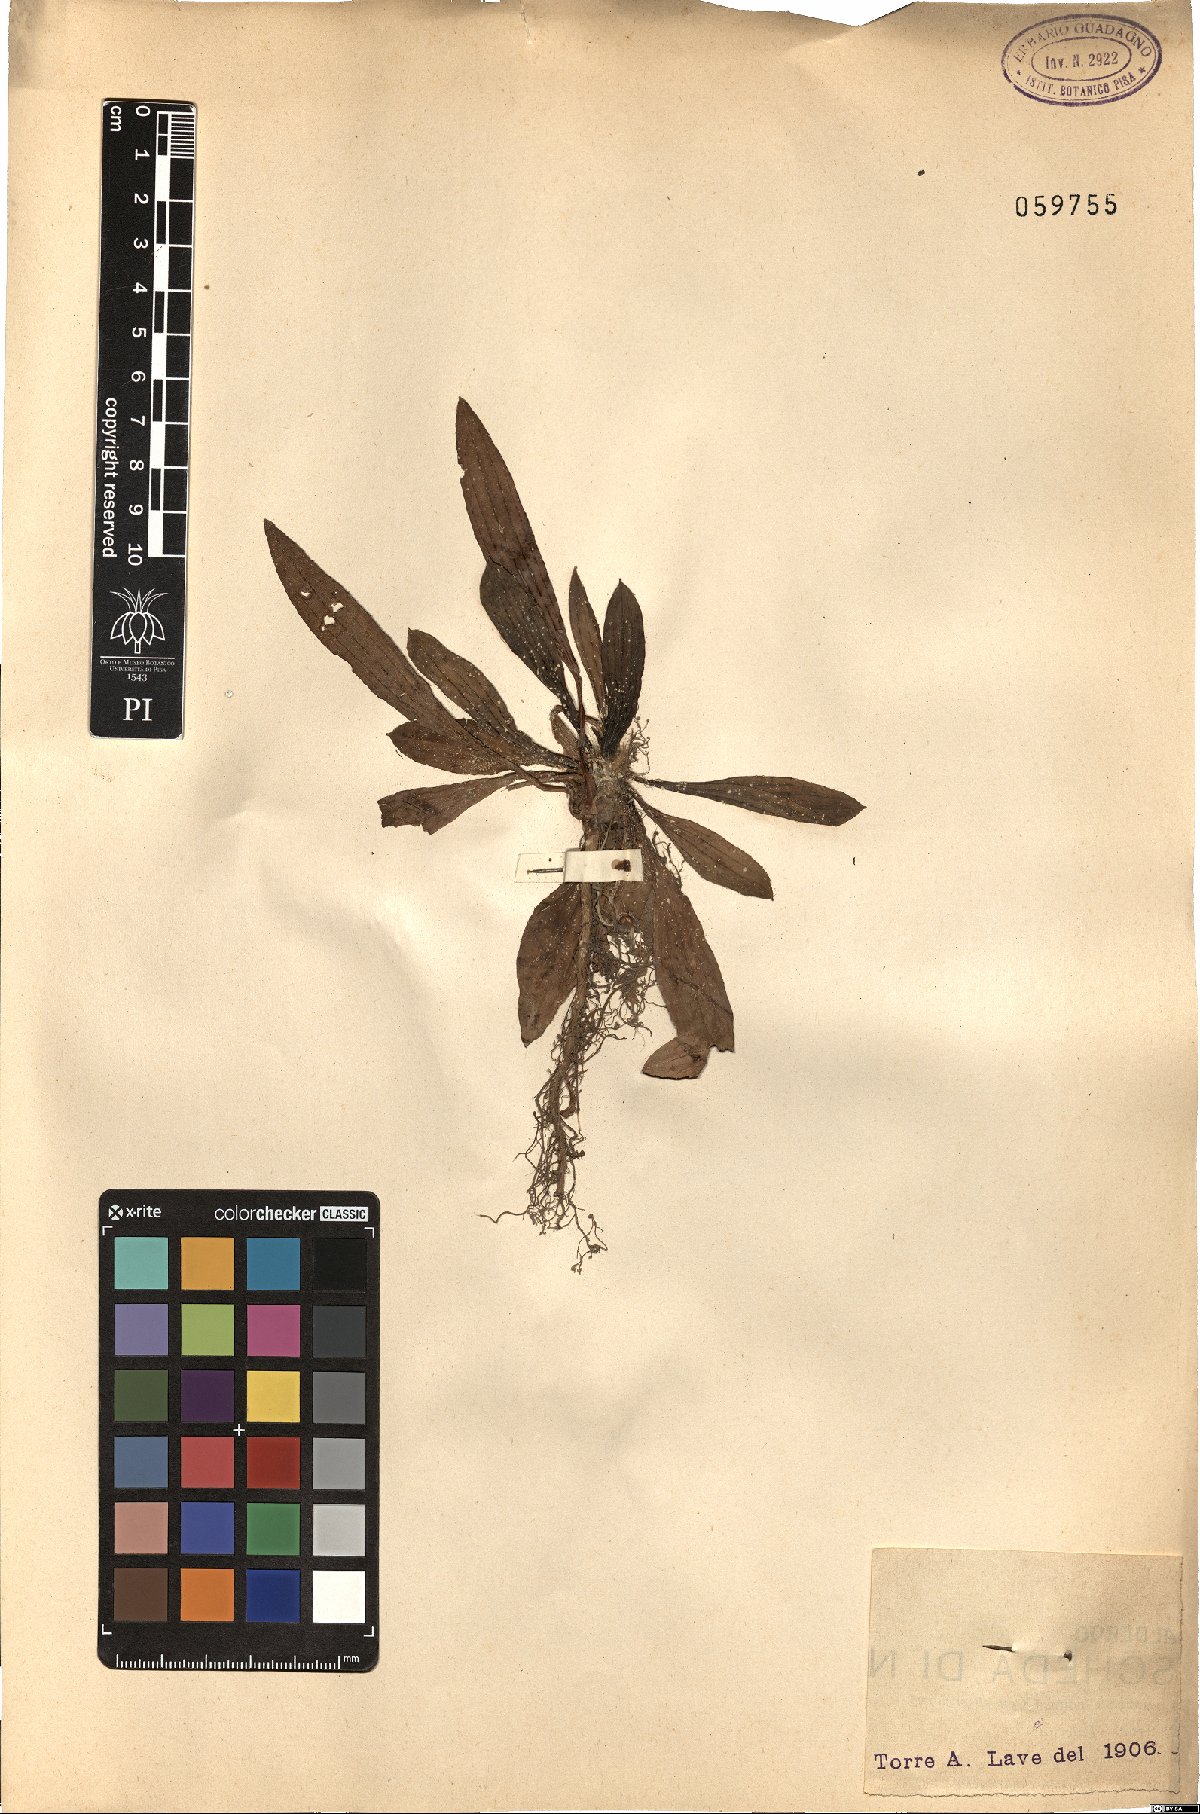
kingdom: Plantae
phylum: Tracheophyta
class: Magnoliopsida
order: Lamiales
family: Plantaginaceae
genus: Plantago
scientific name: Plantago lanceolata
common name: Ribwort plantain
